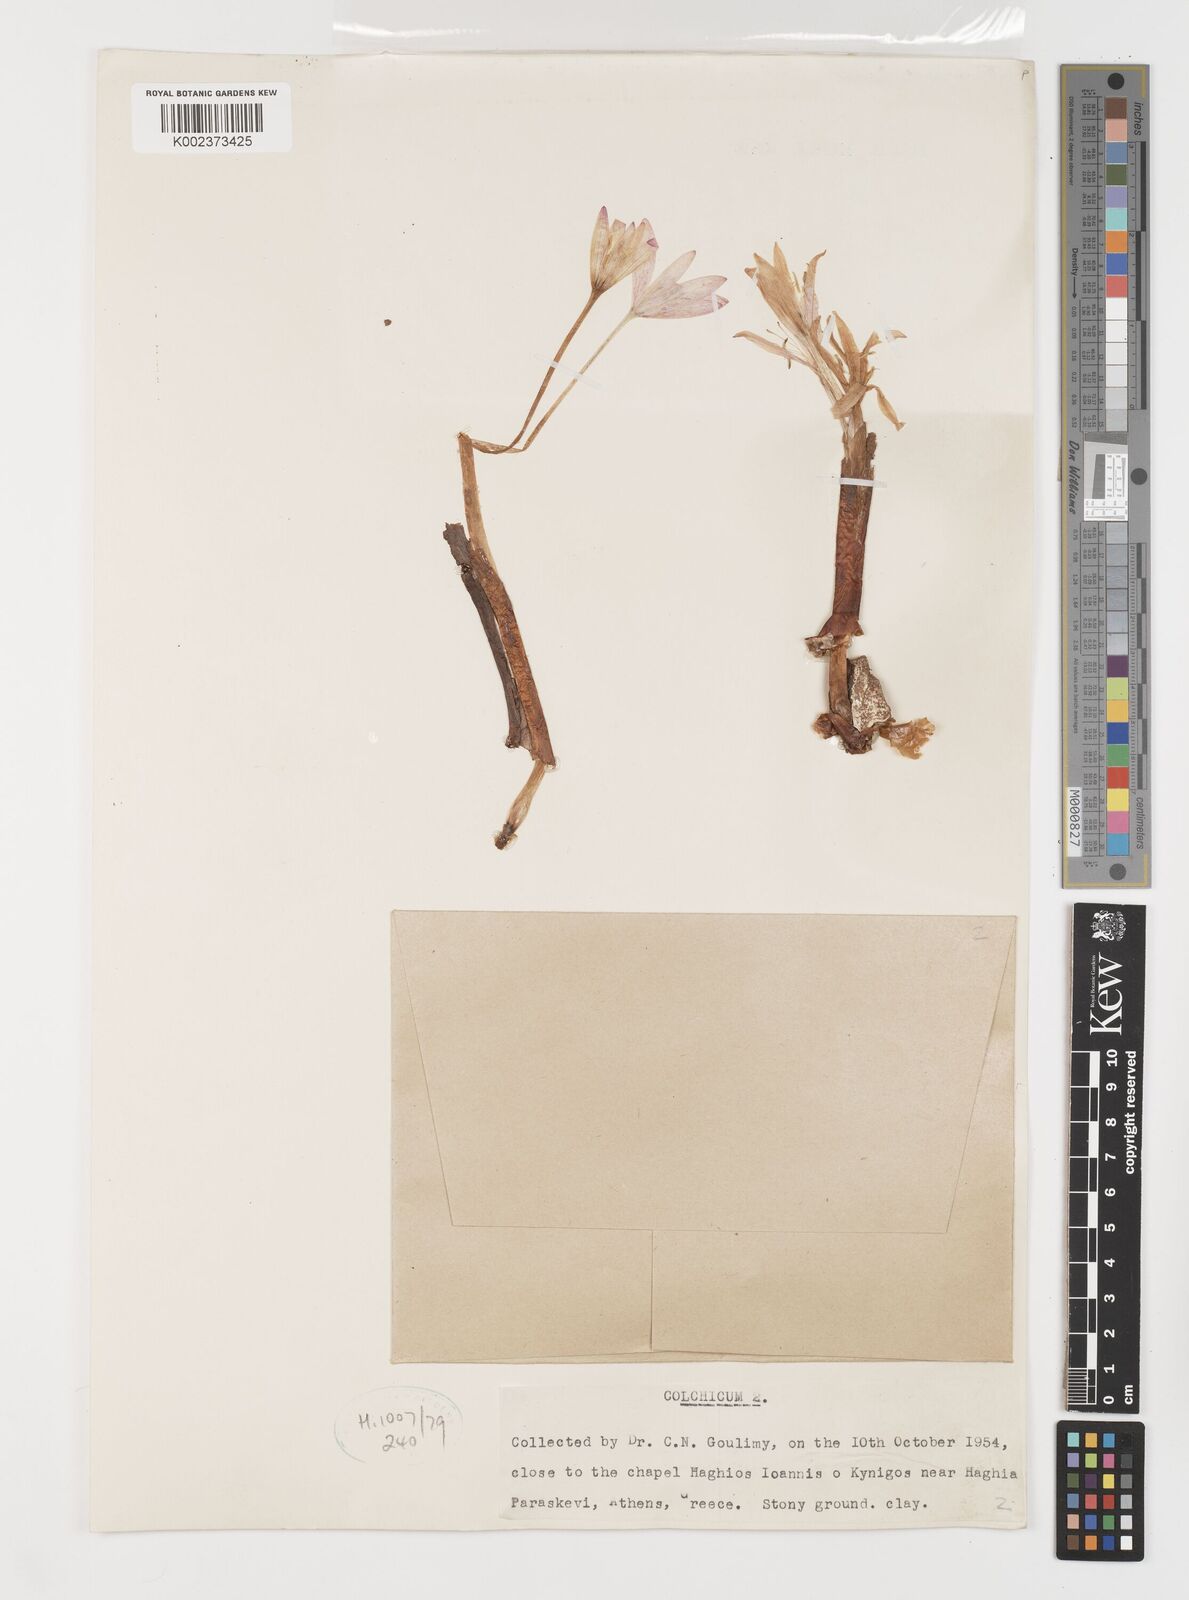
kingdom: Plantae
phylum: Tracheophyta
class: Liliopsida
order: Liliales
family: Colchicaceae
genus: Colchicum
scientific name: Colchicum
